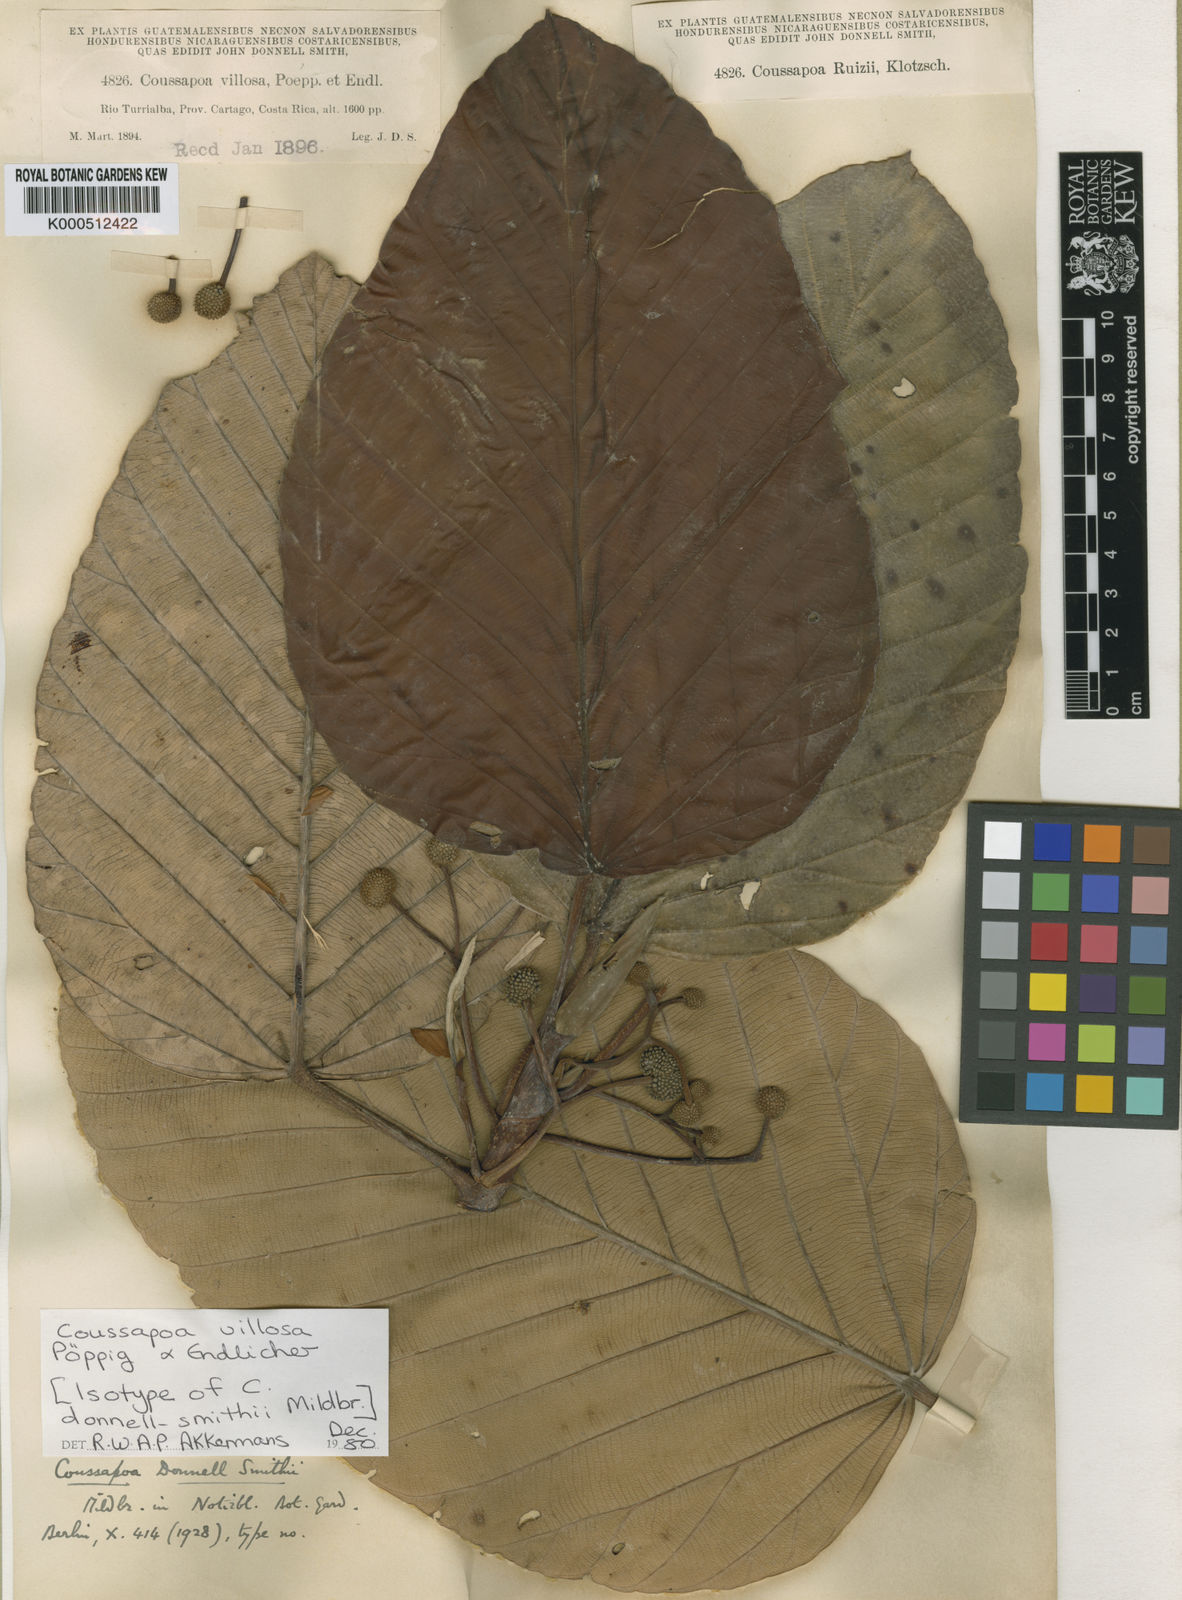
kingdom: Plantae
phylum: Tracheophyta
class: Magnoliopsida
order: Rosales
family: Urticaceae
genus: Coussapoa
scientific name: Coussapoa villosa
